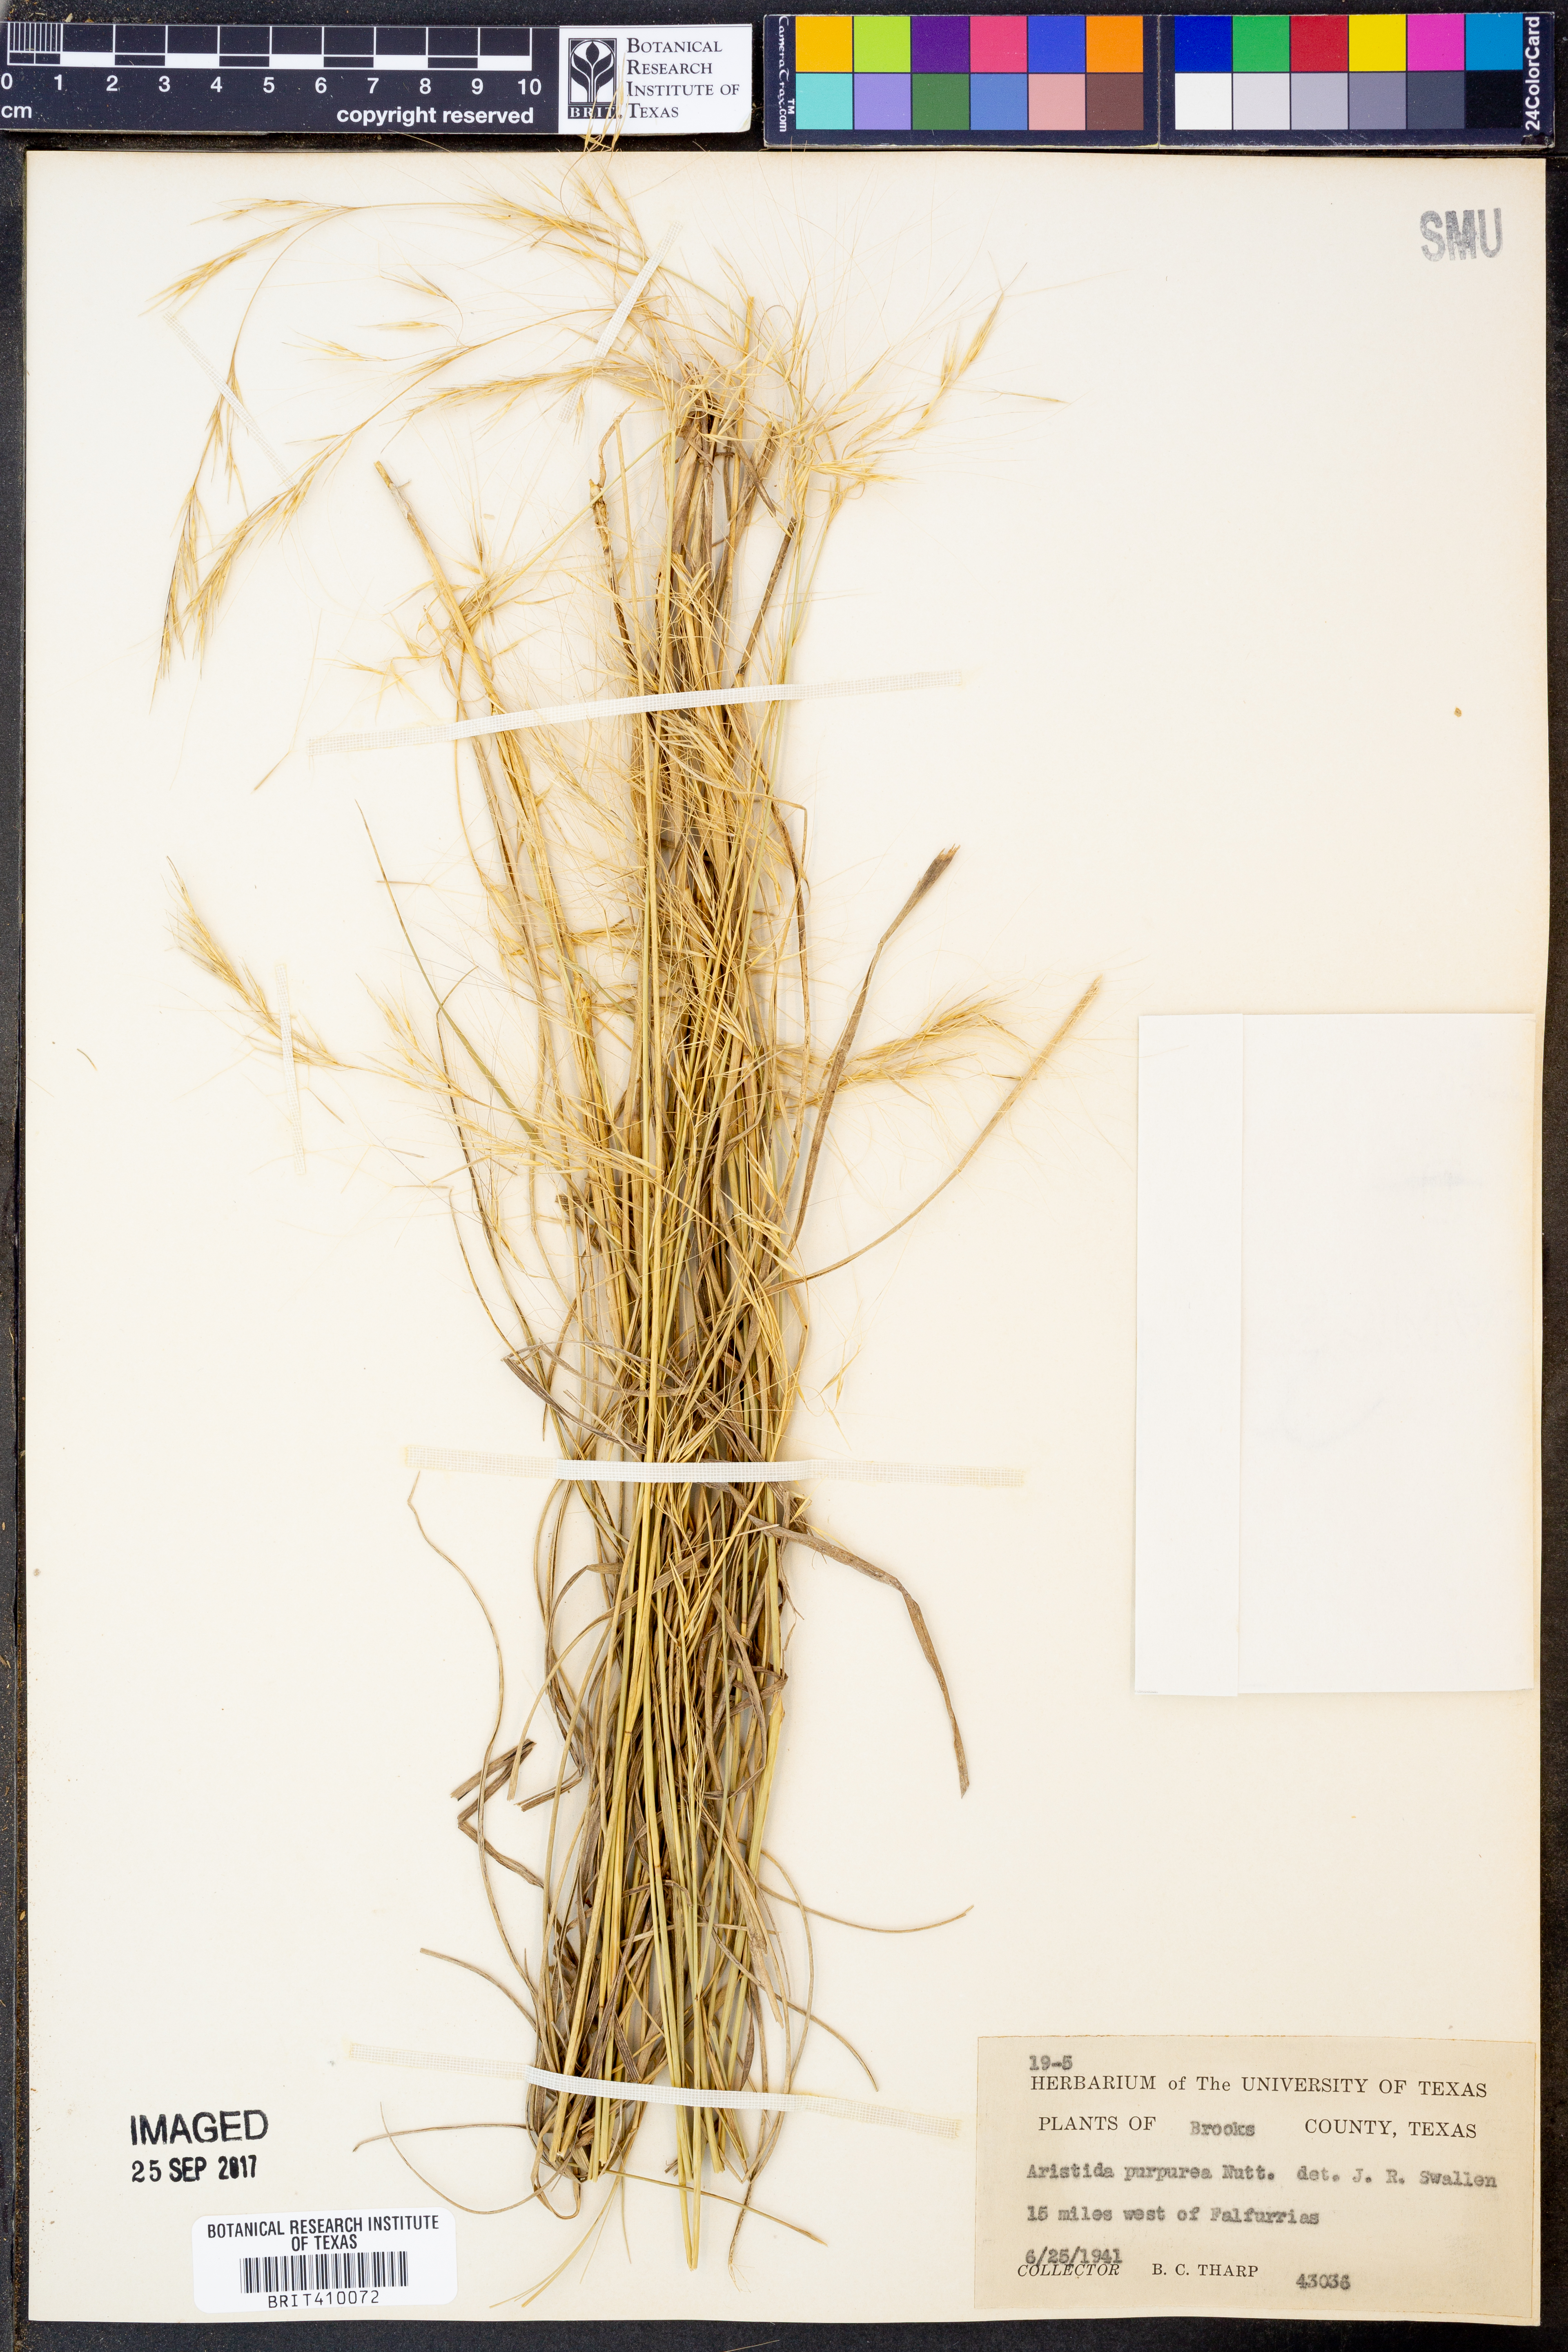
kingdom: Plantae
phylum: Tracheophyta
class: Liliopsida
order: Poales
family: Poaceae
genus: Aristida
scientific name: Aristida purpurea
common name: Purple threeawn
